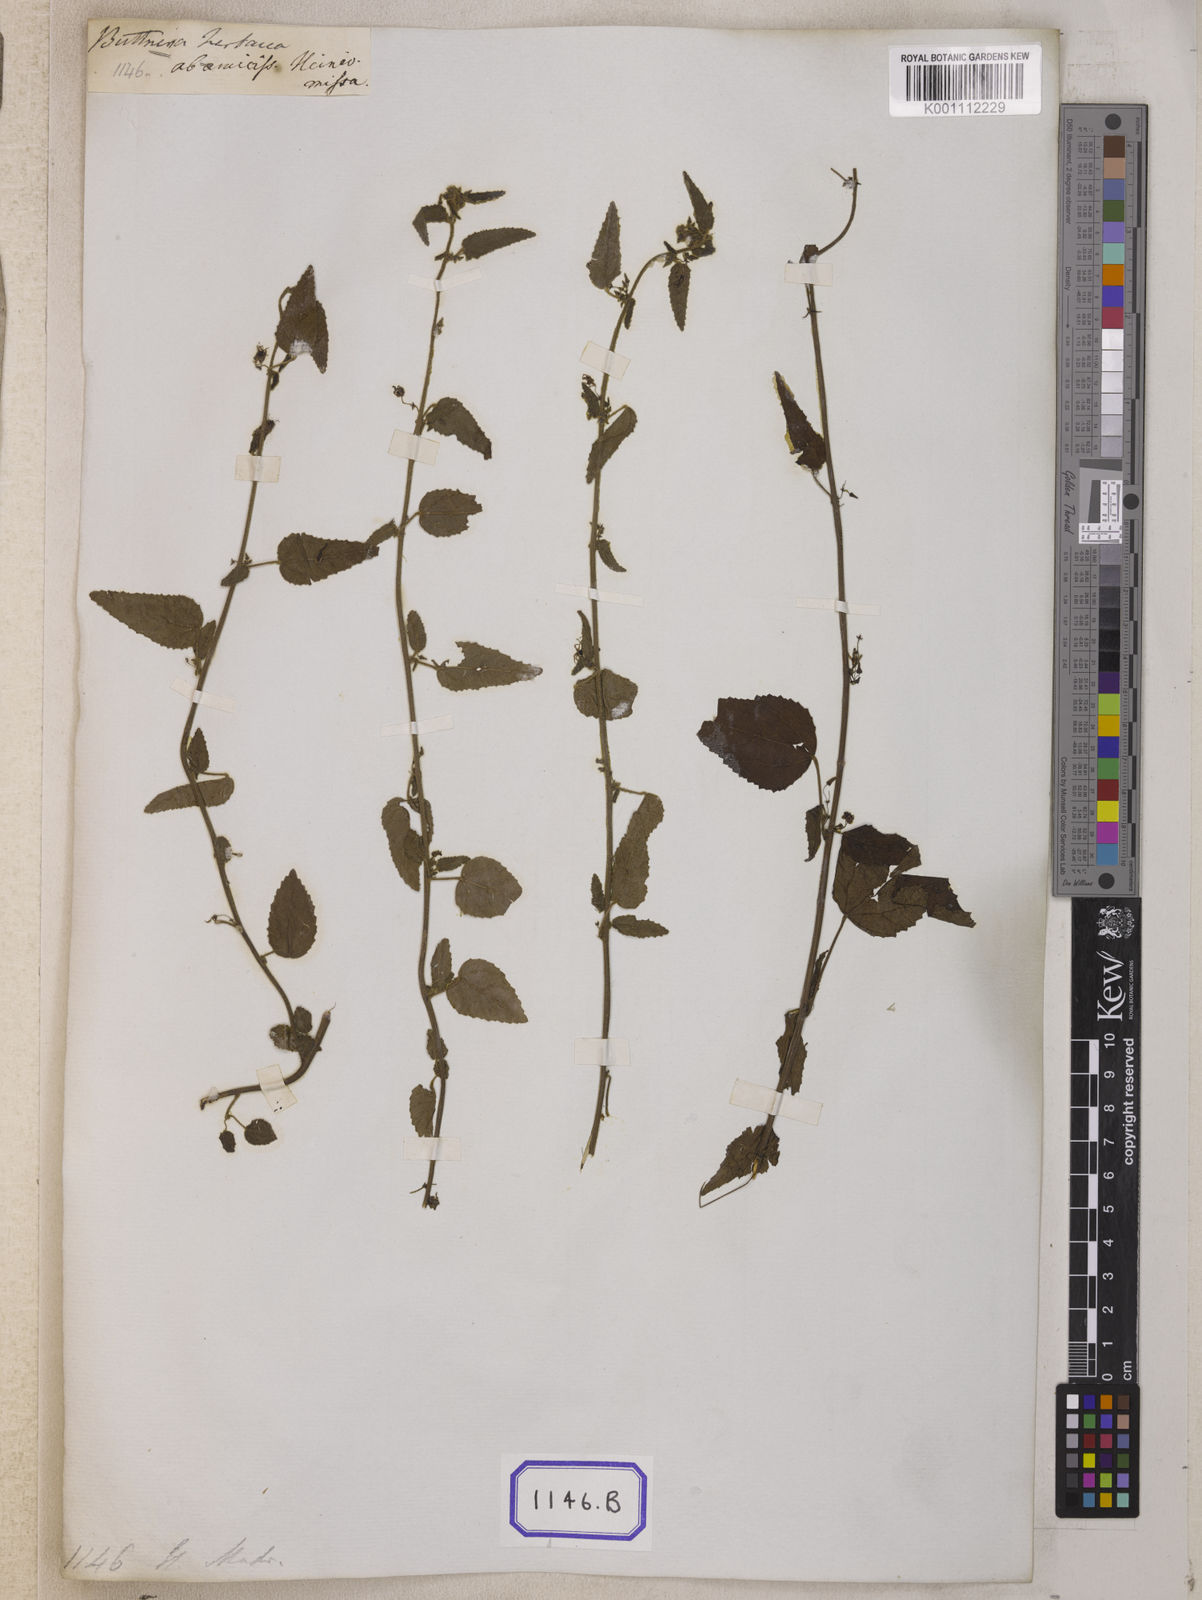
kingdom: Plantae
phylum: Tracheophyta
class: Magnoliopsida
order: Malvales
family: Malvaceae
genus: Byttneria
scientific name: Byttneria herbacea
